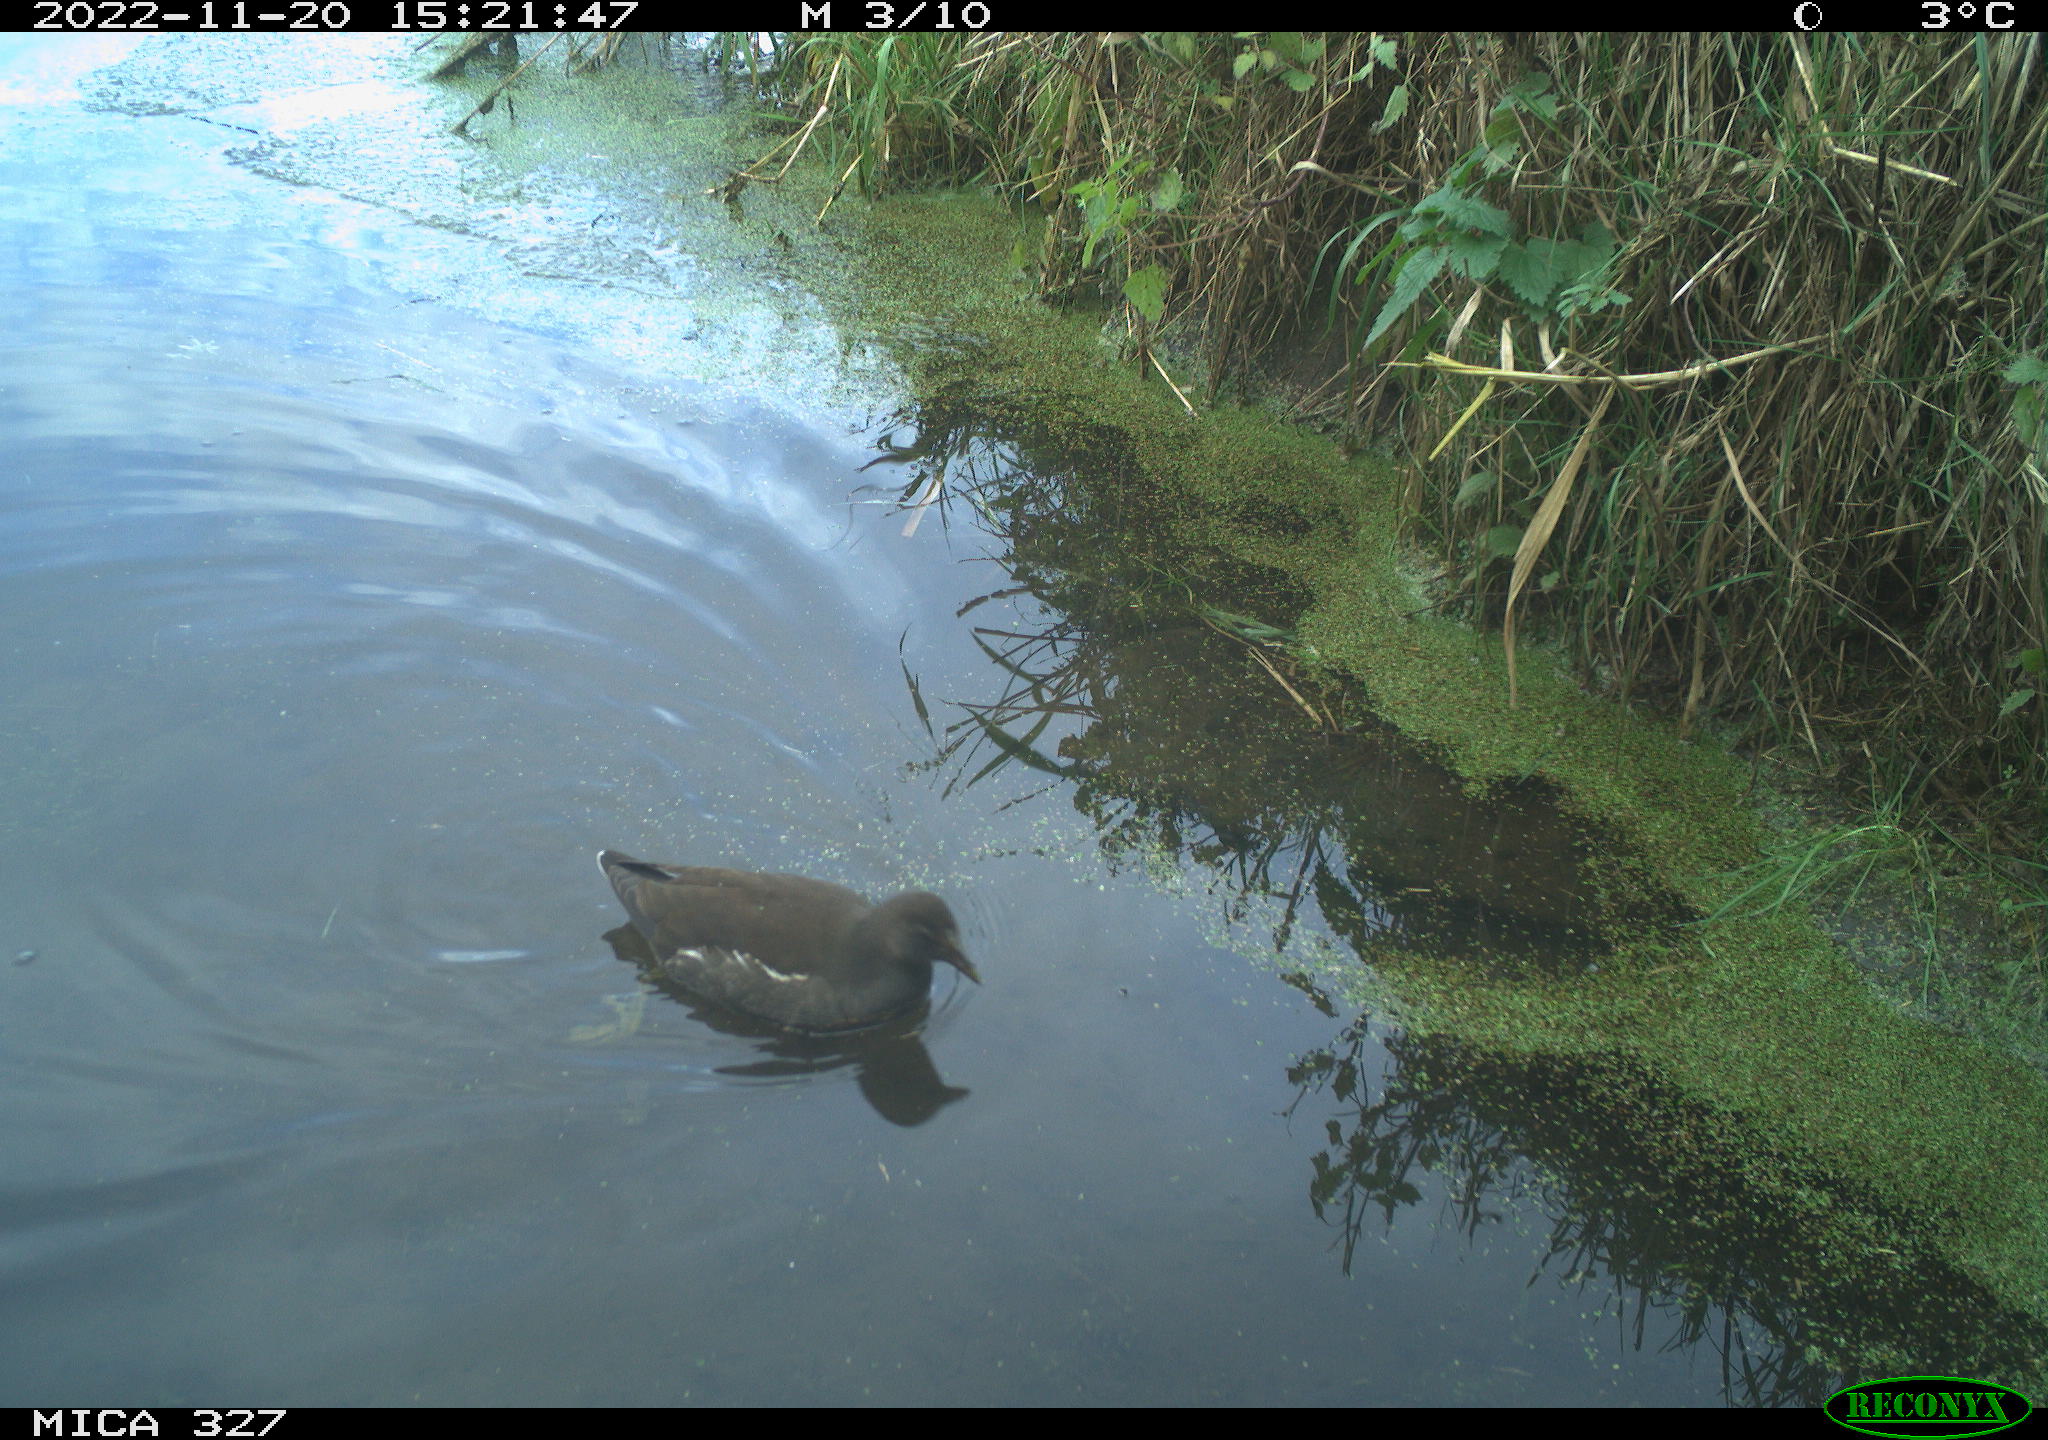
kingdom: Animalia
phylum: Chordata
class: Aves
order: Gruiformes
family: Rallidae
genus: Gallinula
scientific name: Gallinula chloropus
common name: Common moorhen
